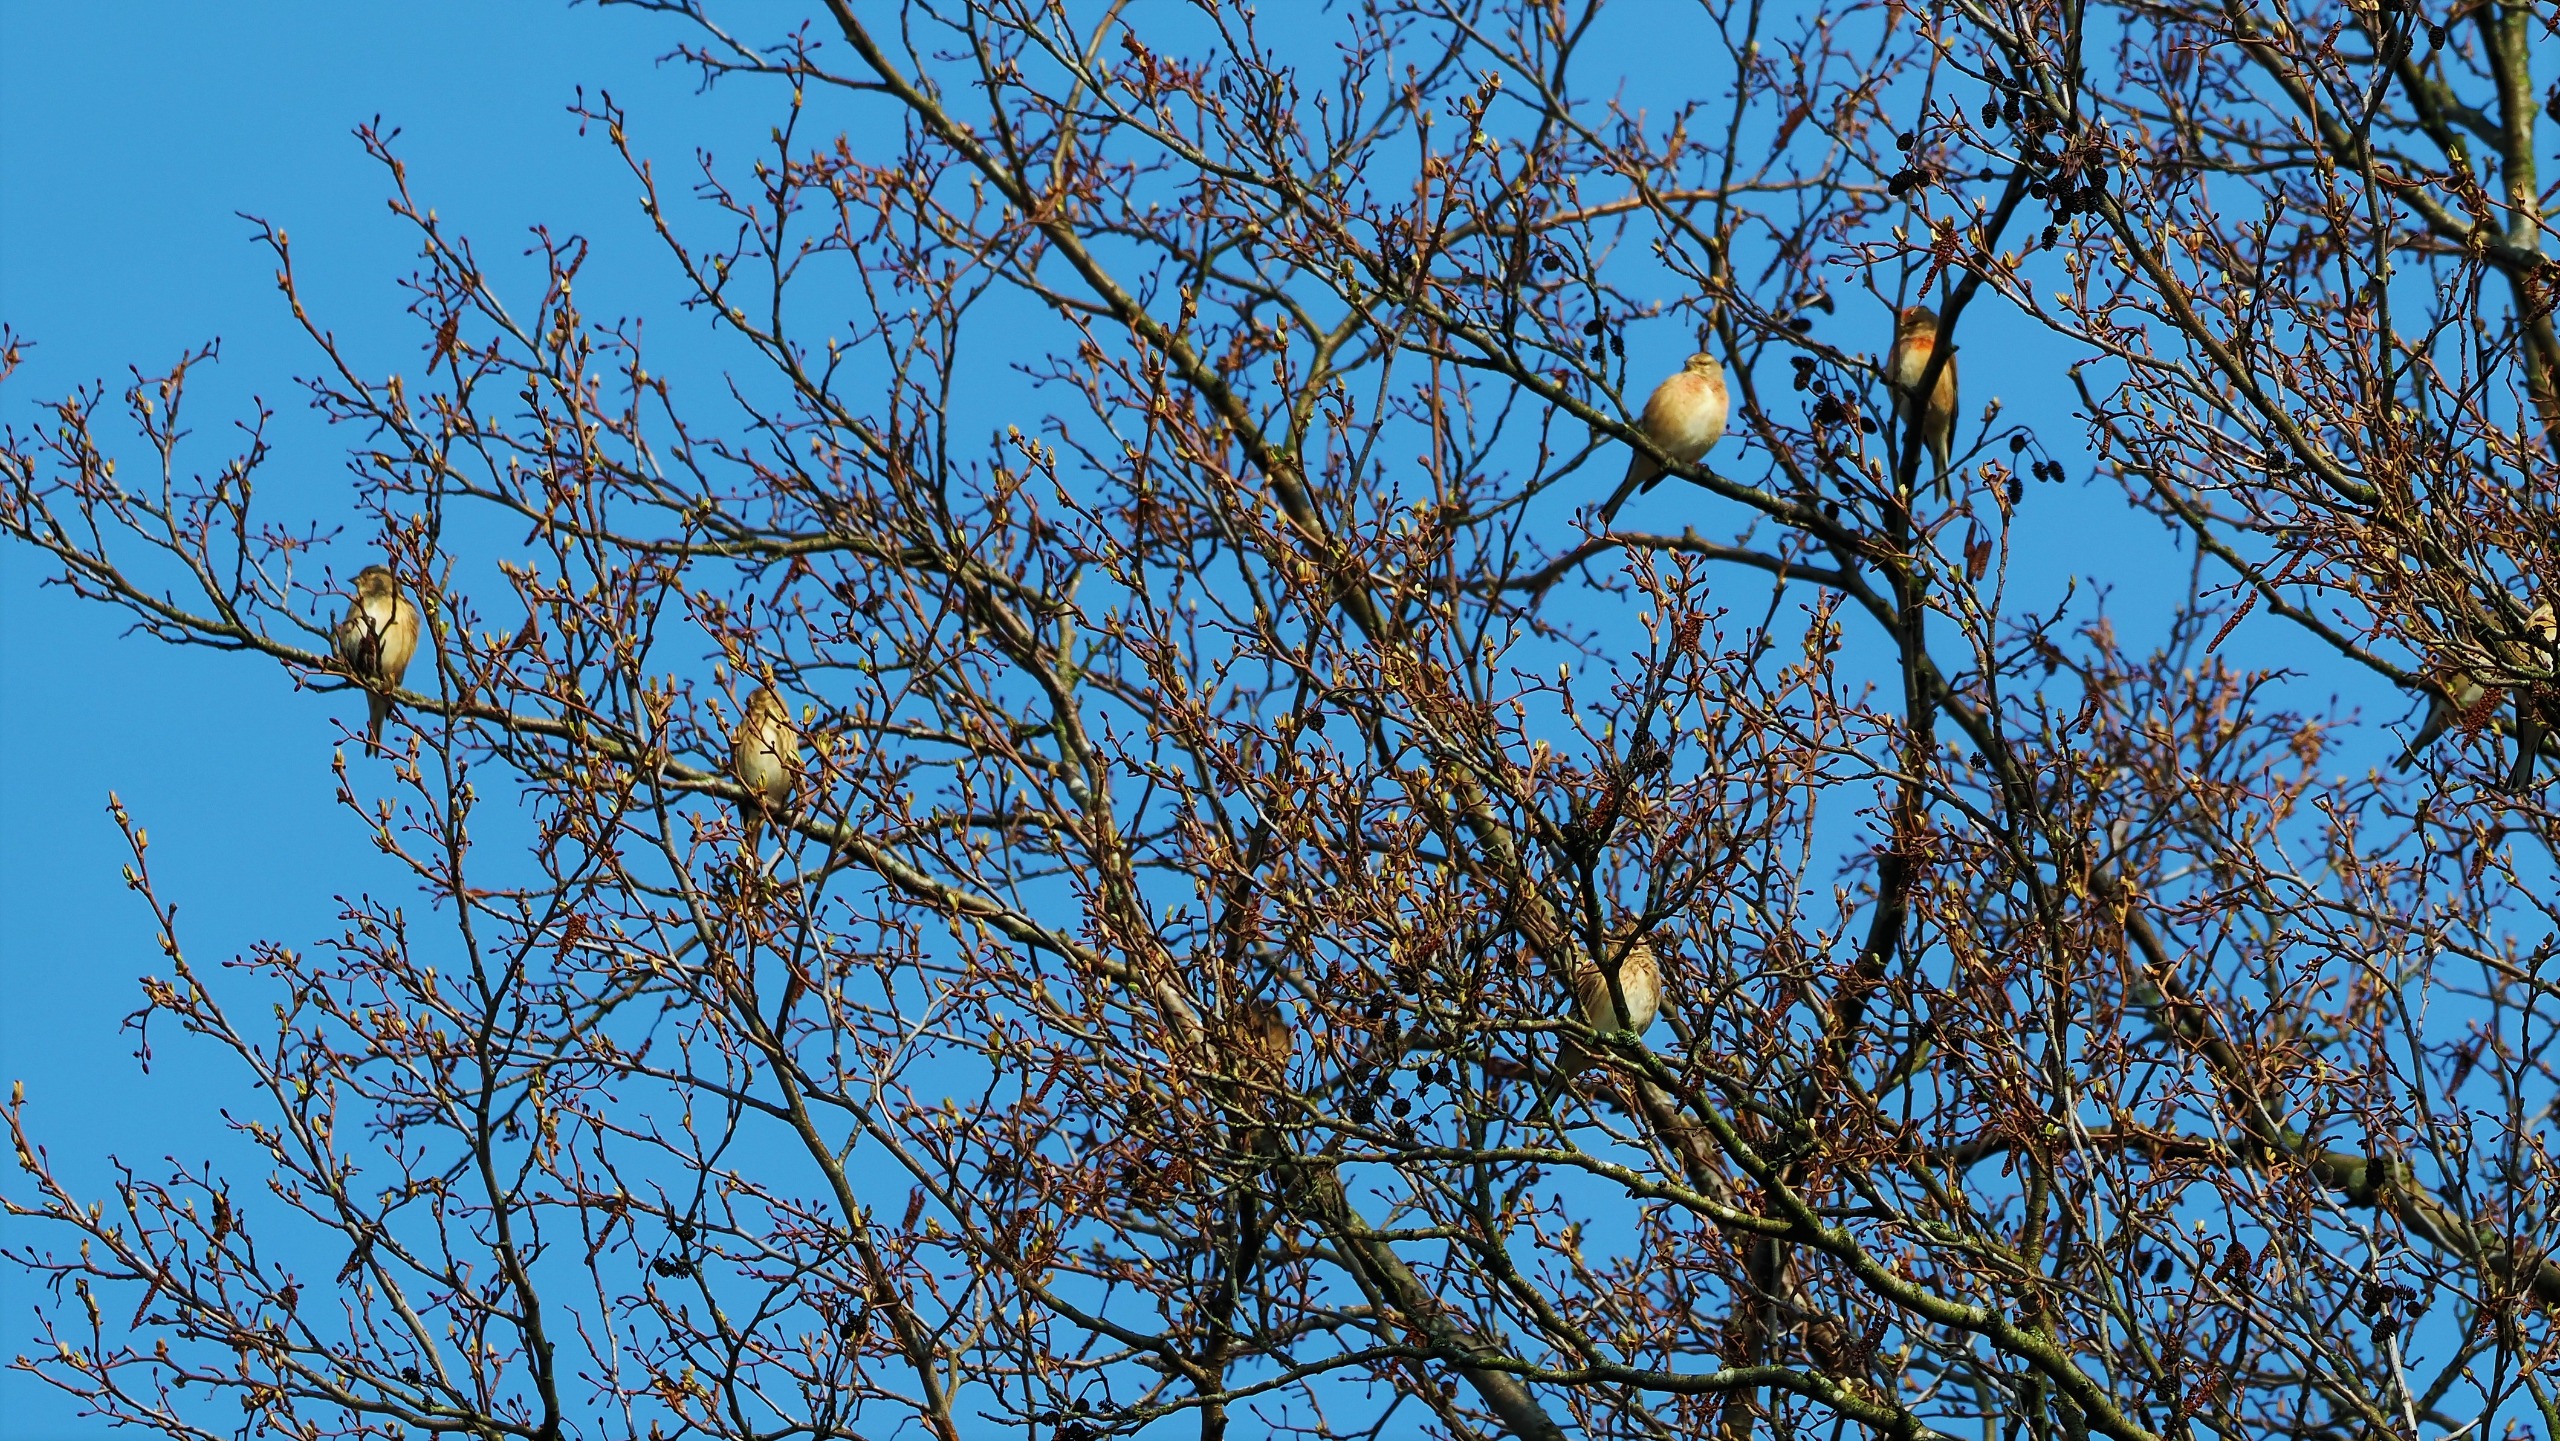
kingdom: Animalia
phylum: Chordata
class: Aves
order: Passeriformes
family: Fringillidae
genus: Linaria
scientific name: Linaria cannabina
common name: Tornirisk
